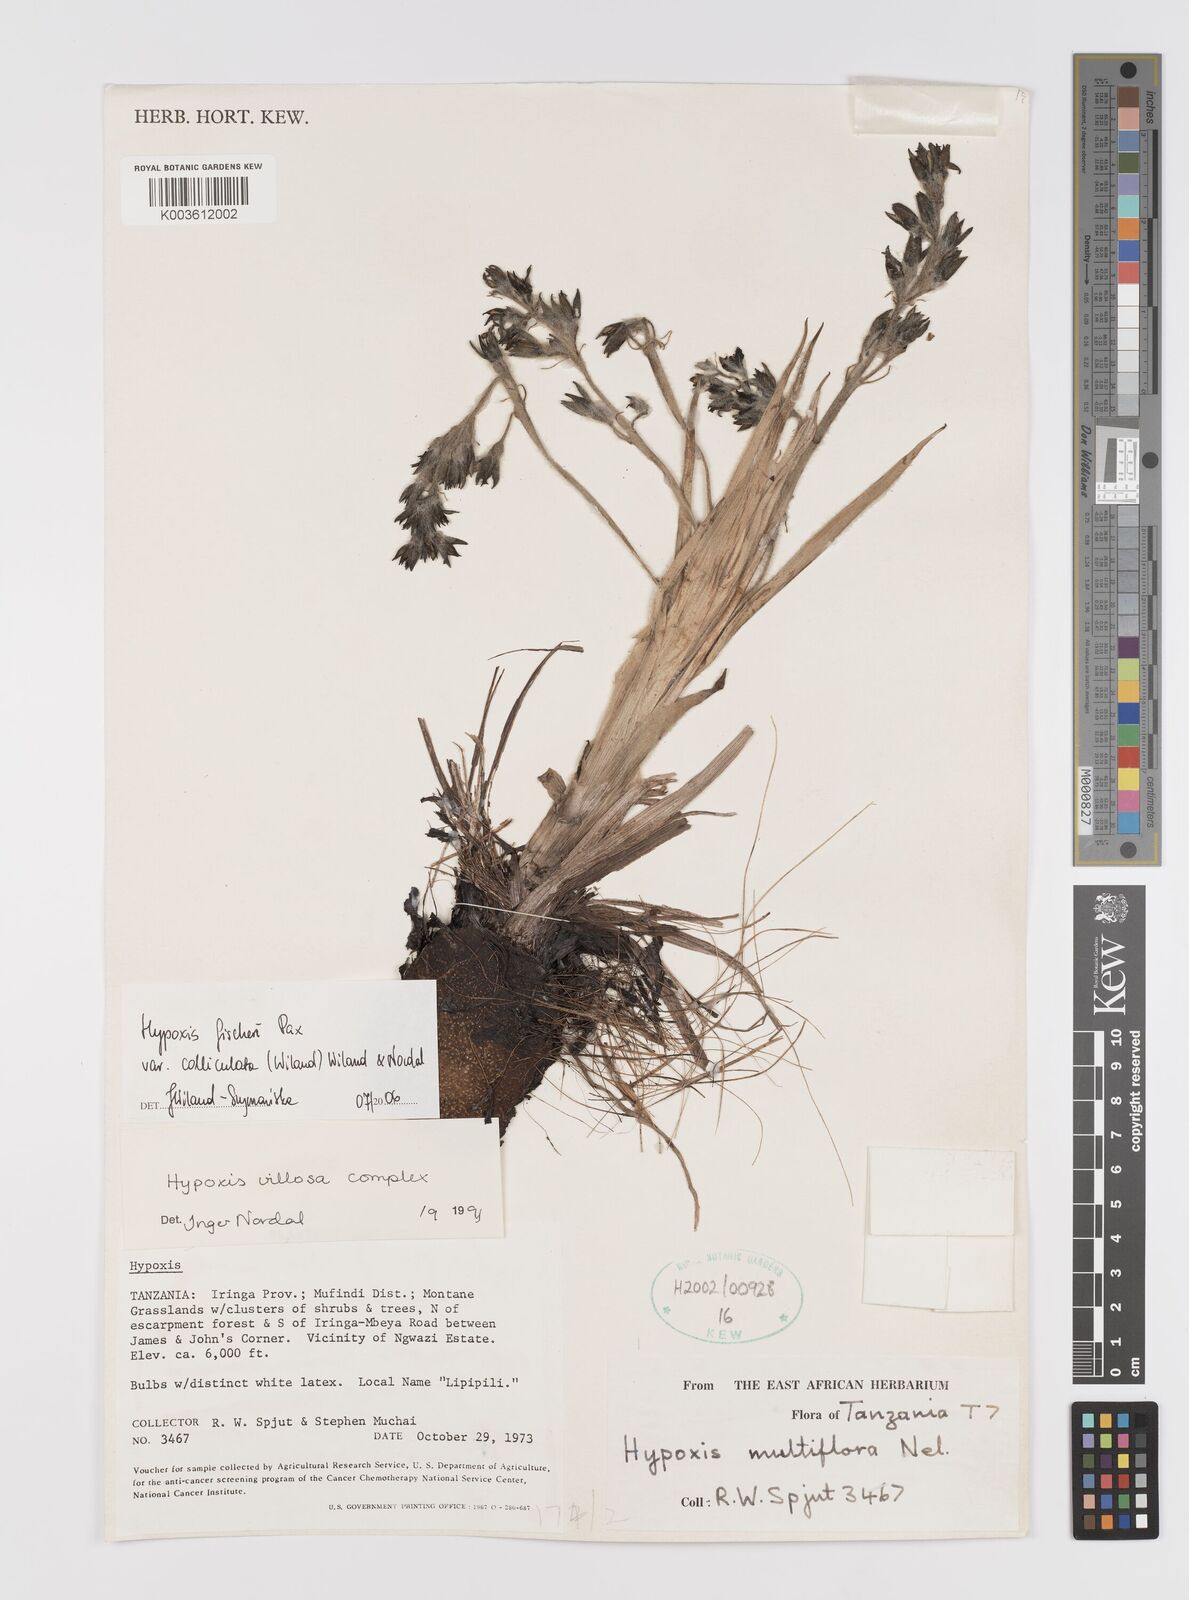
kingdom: Plantae
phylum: Tracheophyta
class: Liliopsida
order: Asparagales
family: Hypoxidaceae
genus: Hypoxis
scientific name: Hypoxis fischeri
